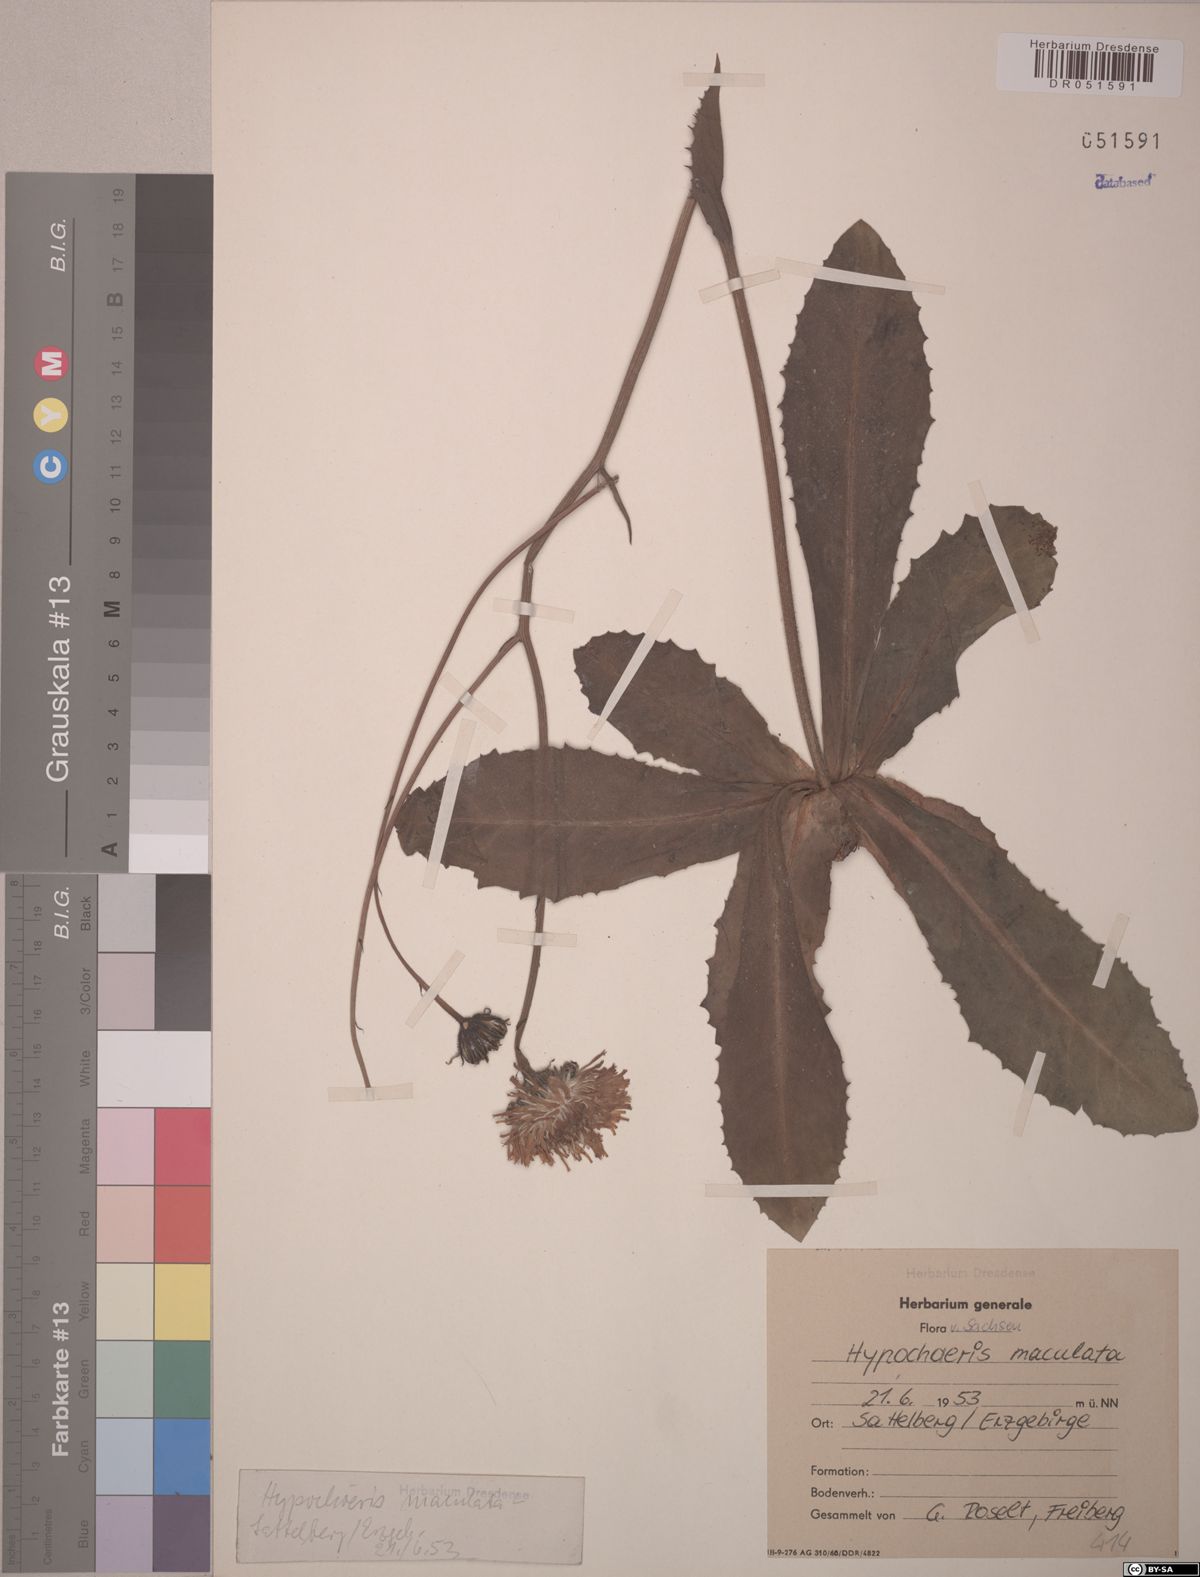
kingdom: Plantae
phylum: Tracheophyta
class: Magnoliopsida
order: Asterales
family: Asteraceae
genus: Trommsdorffia
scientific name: Trommsdorffia maculata
